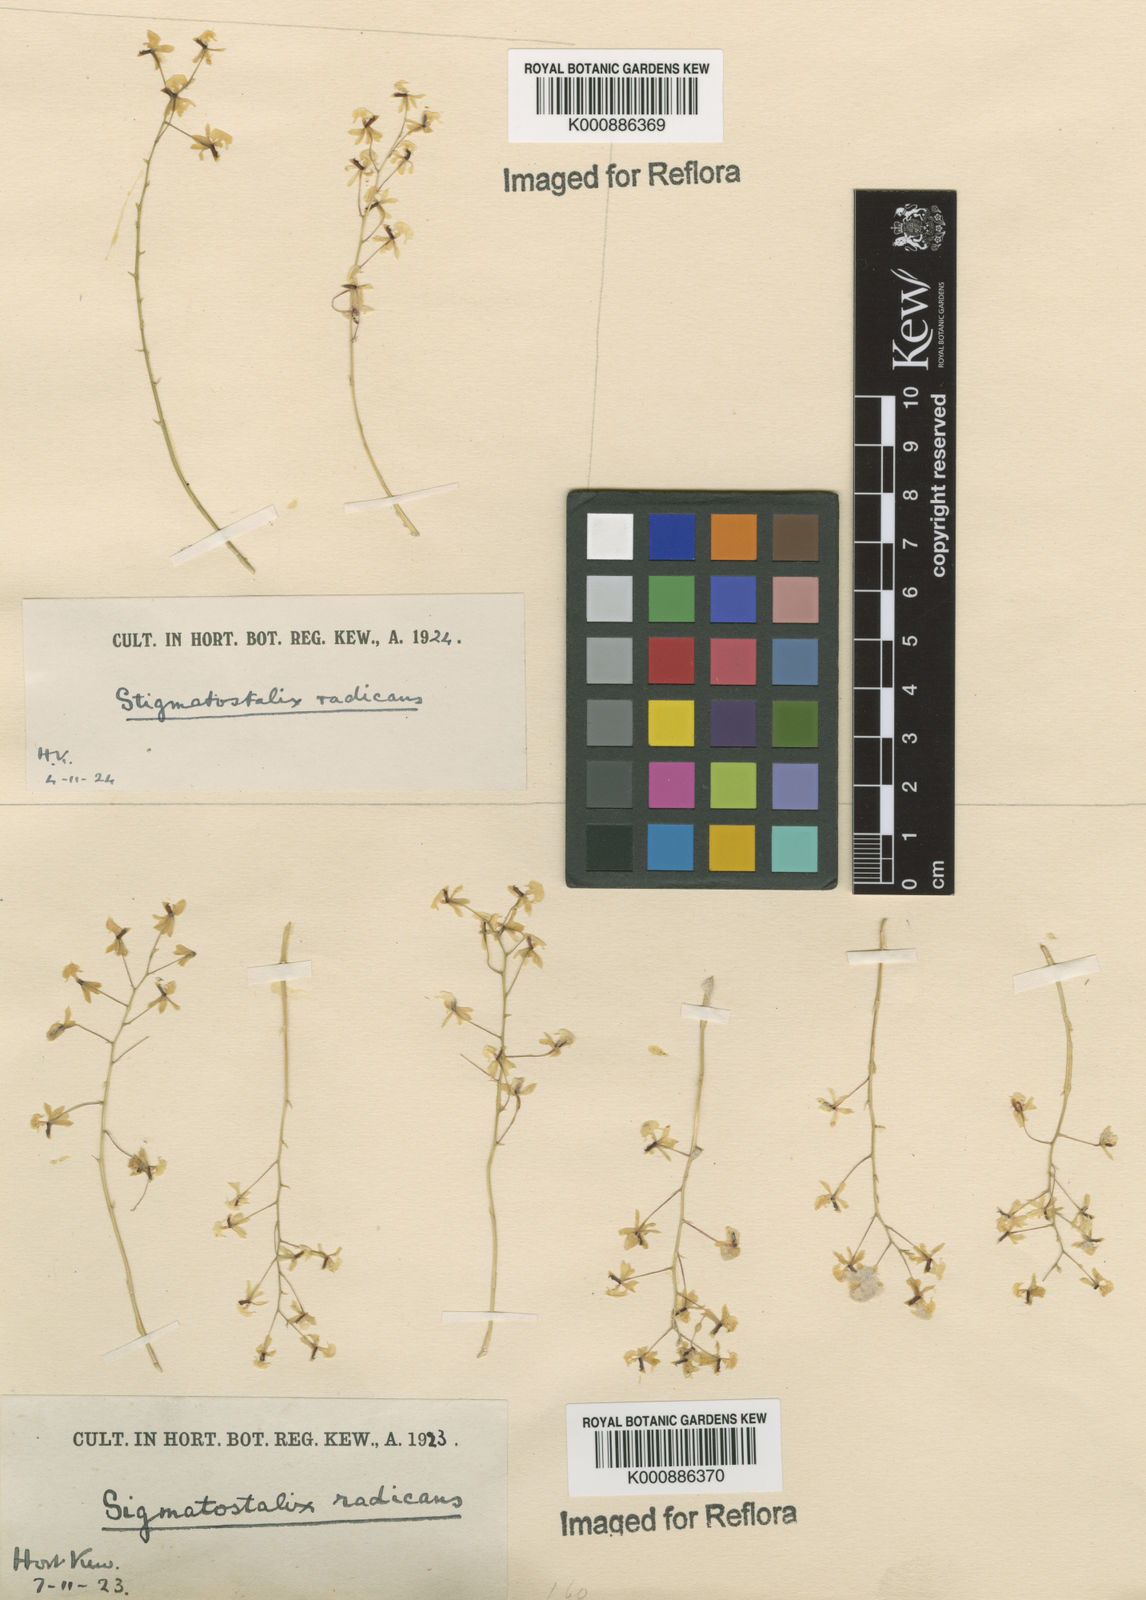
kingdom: Plantae
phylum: Tracheophyta
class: Liliopsida
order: Asparagales
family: Orchidaceae
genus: Gomesa
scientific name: Gomesa radicans
